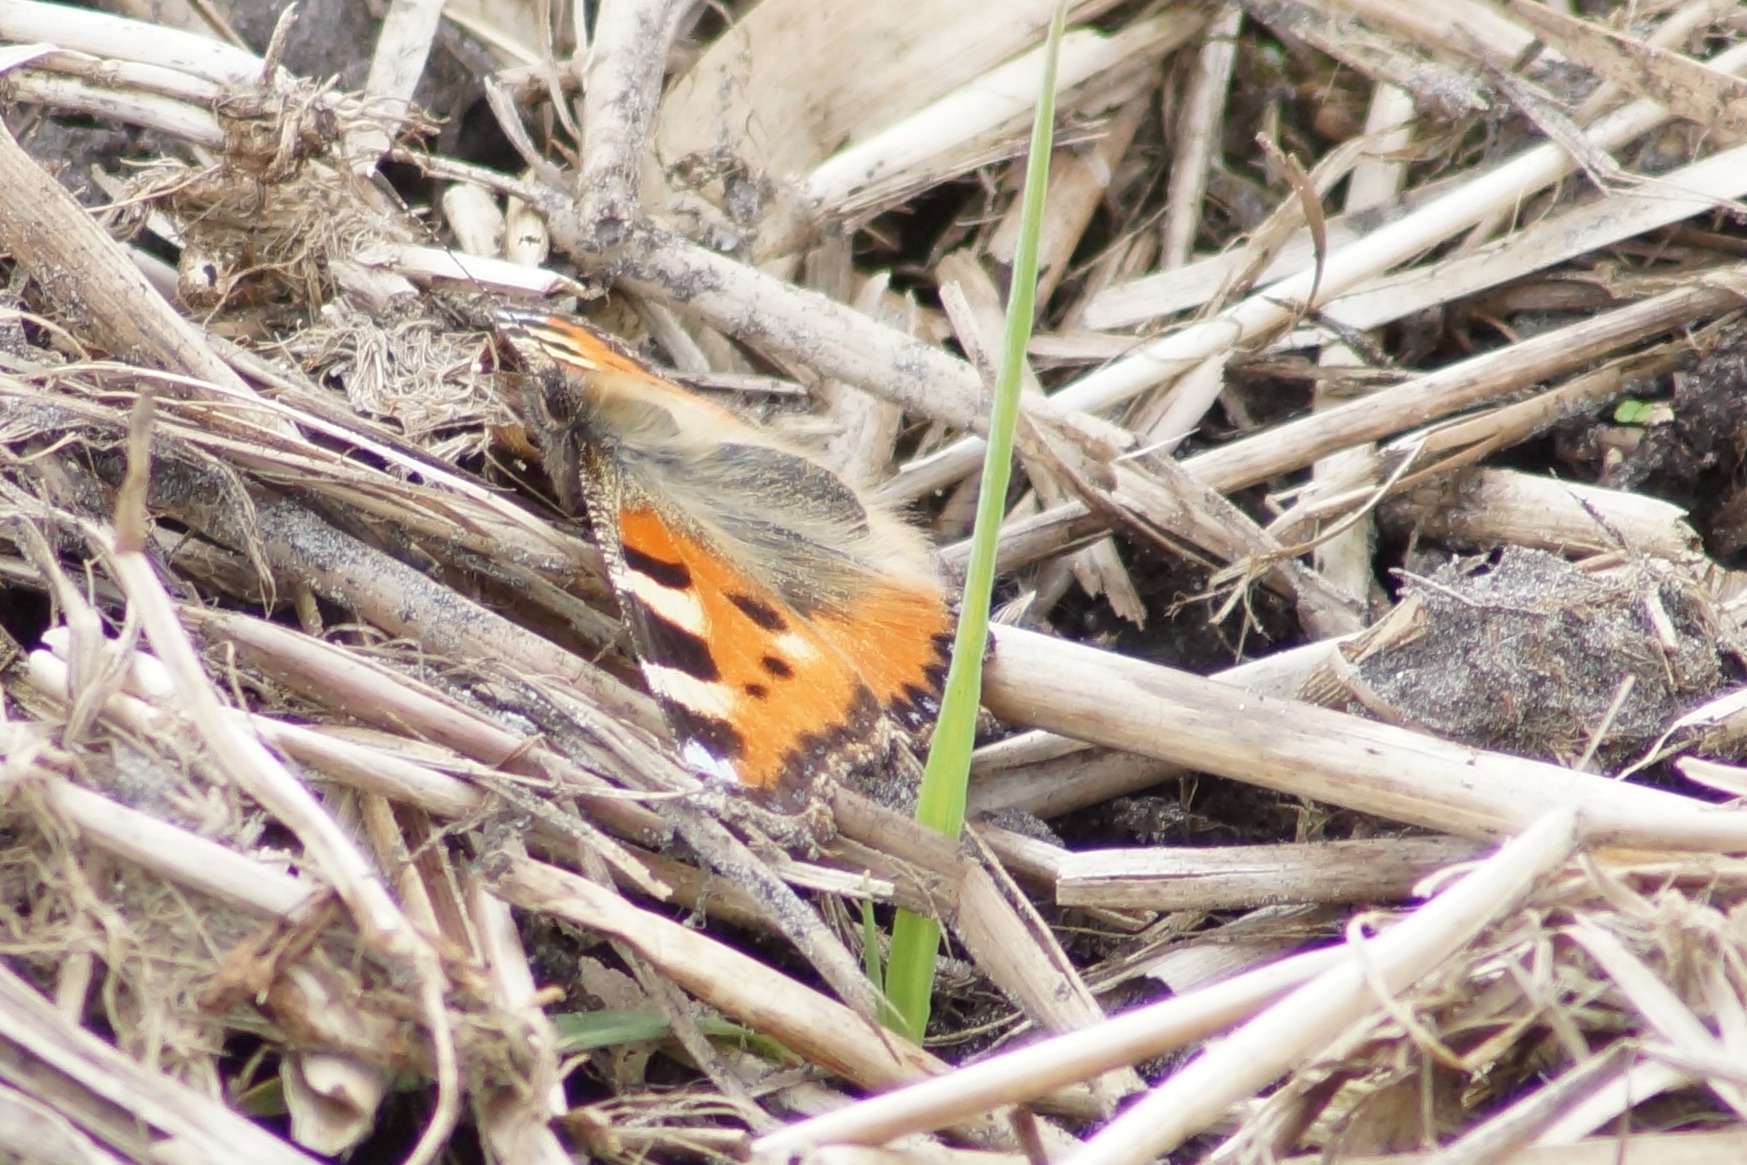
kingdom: Animalia
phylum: Arthropoda
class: Insecta
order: Lepidoptera
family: Nymphalidae
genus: Aglais
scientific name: Aglais urticae
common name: Nældens takvinge
